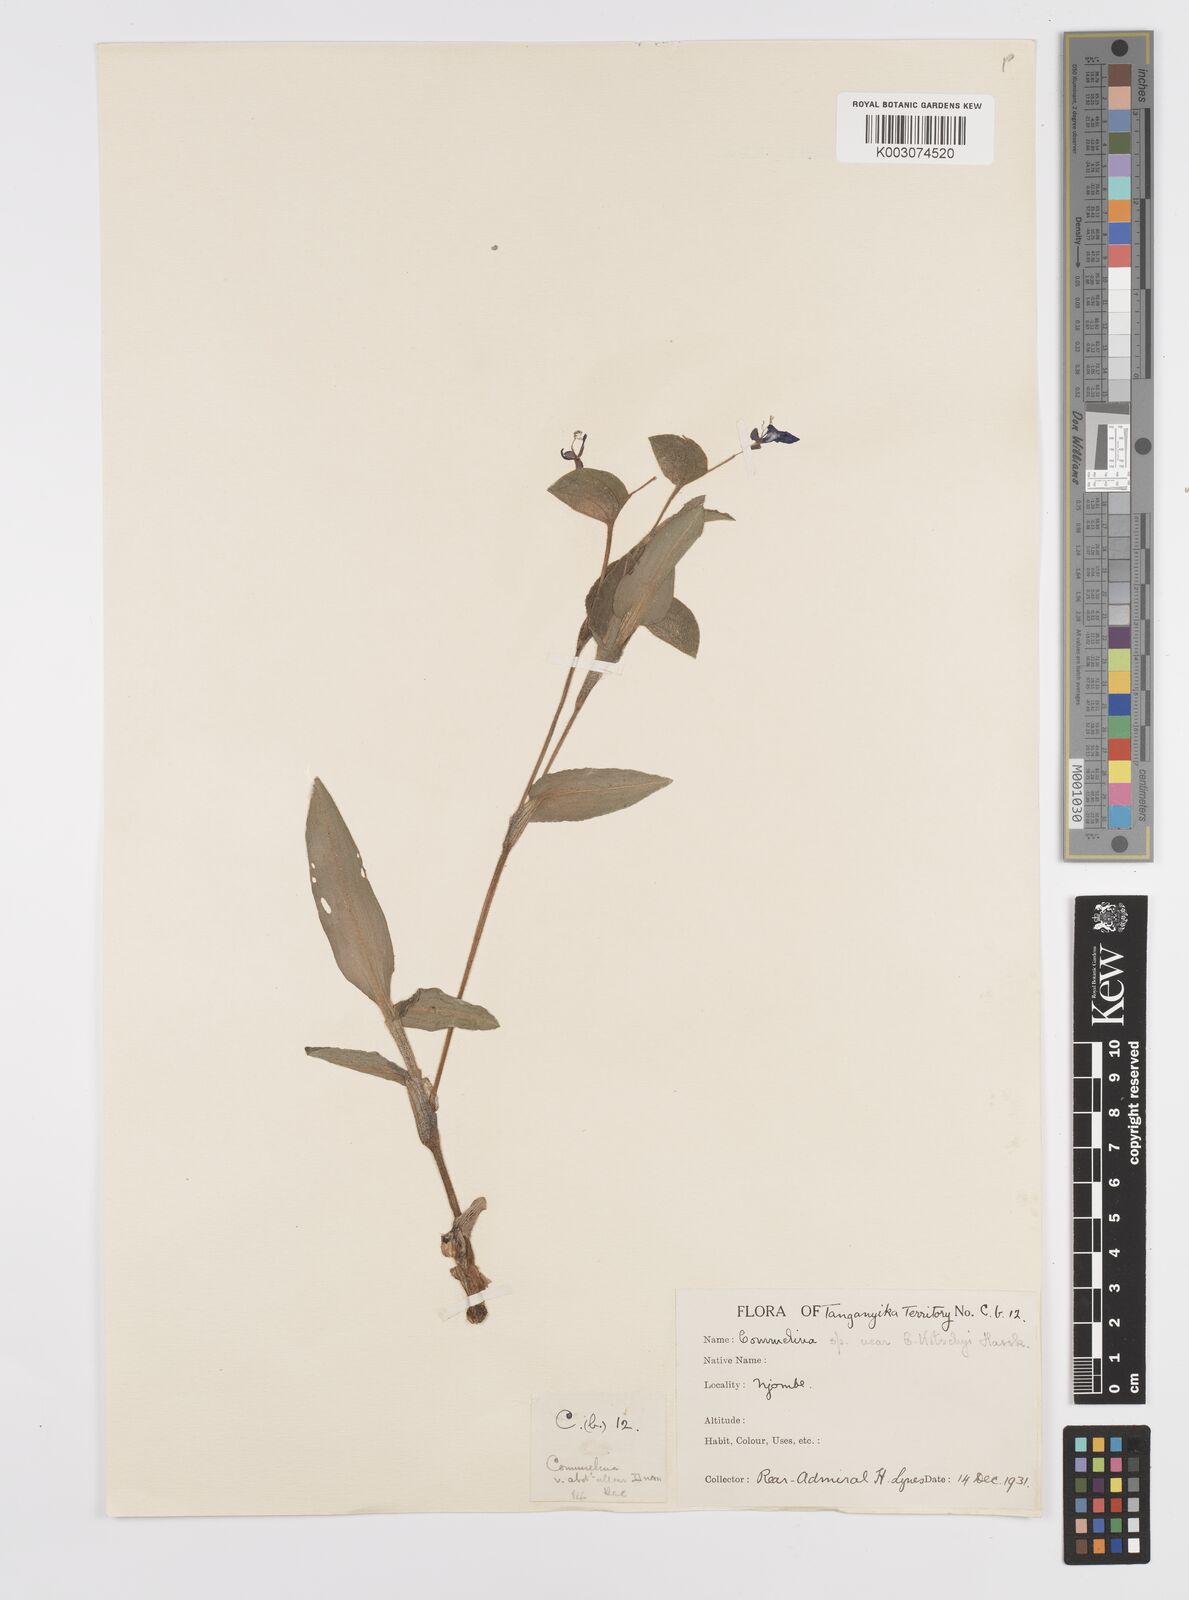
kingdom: Plantae
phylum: Tracheophyta
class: Liliopsida
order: Commelinales
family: Commelinaceae
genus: Commelina
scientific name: Commelina schliebenii
